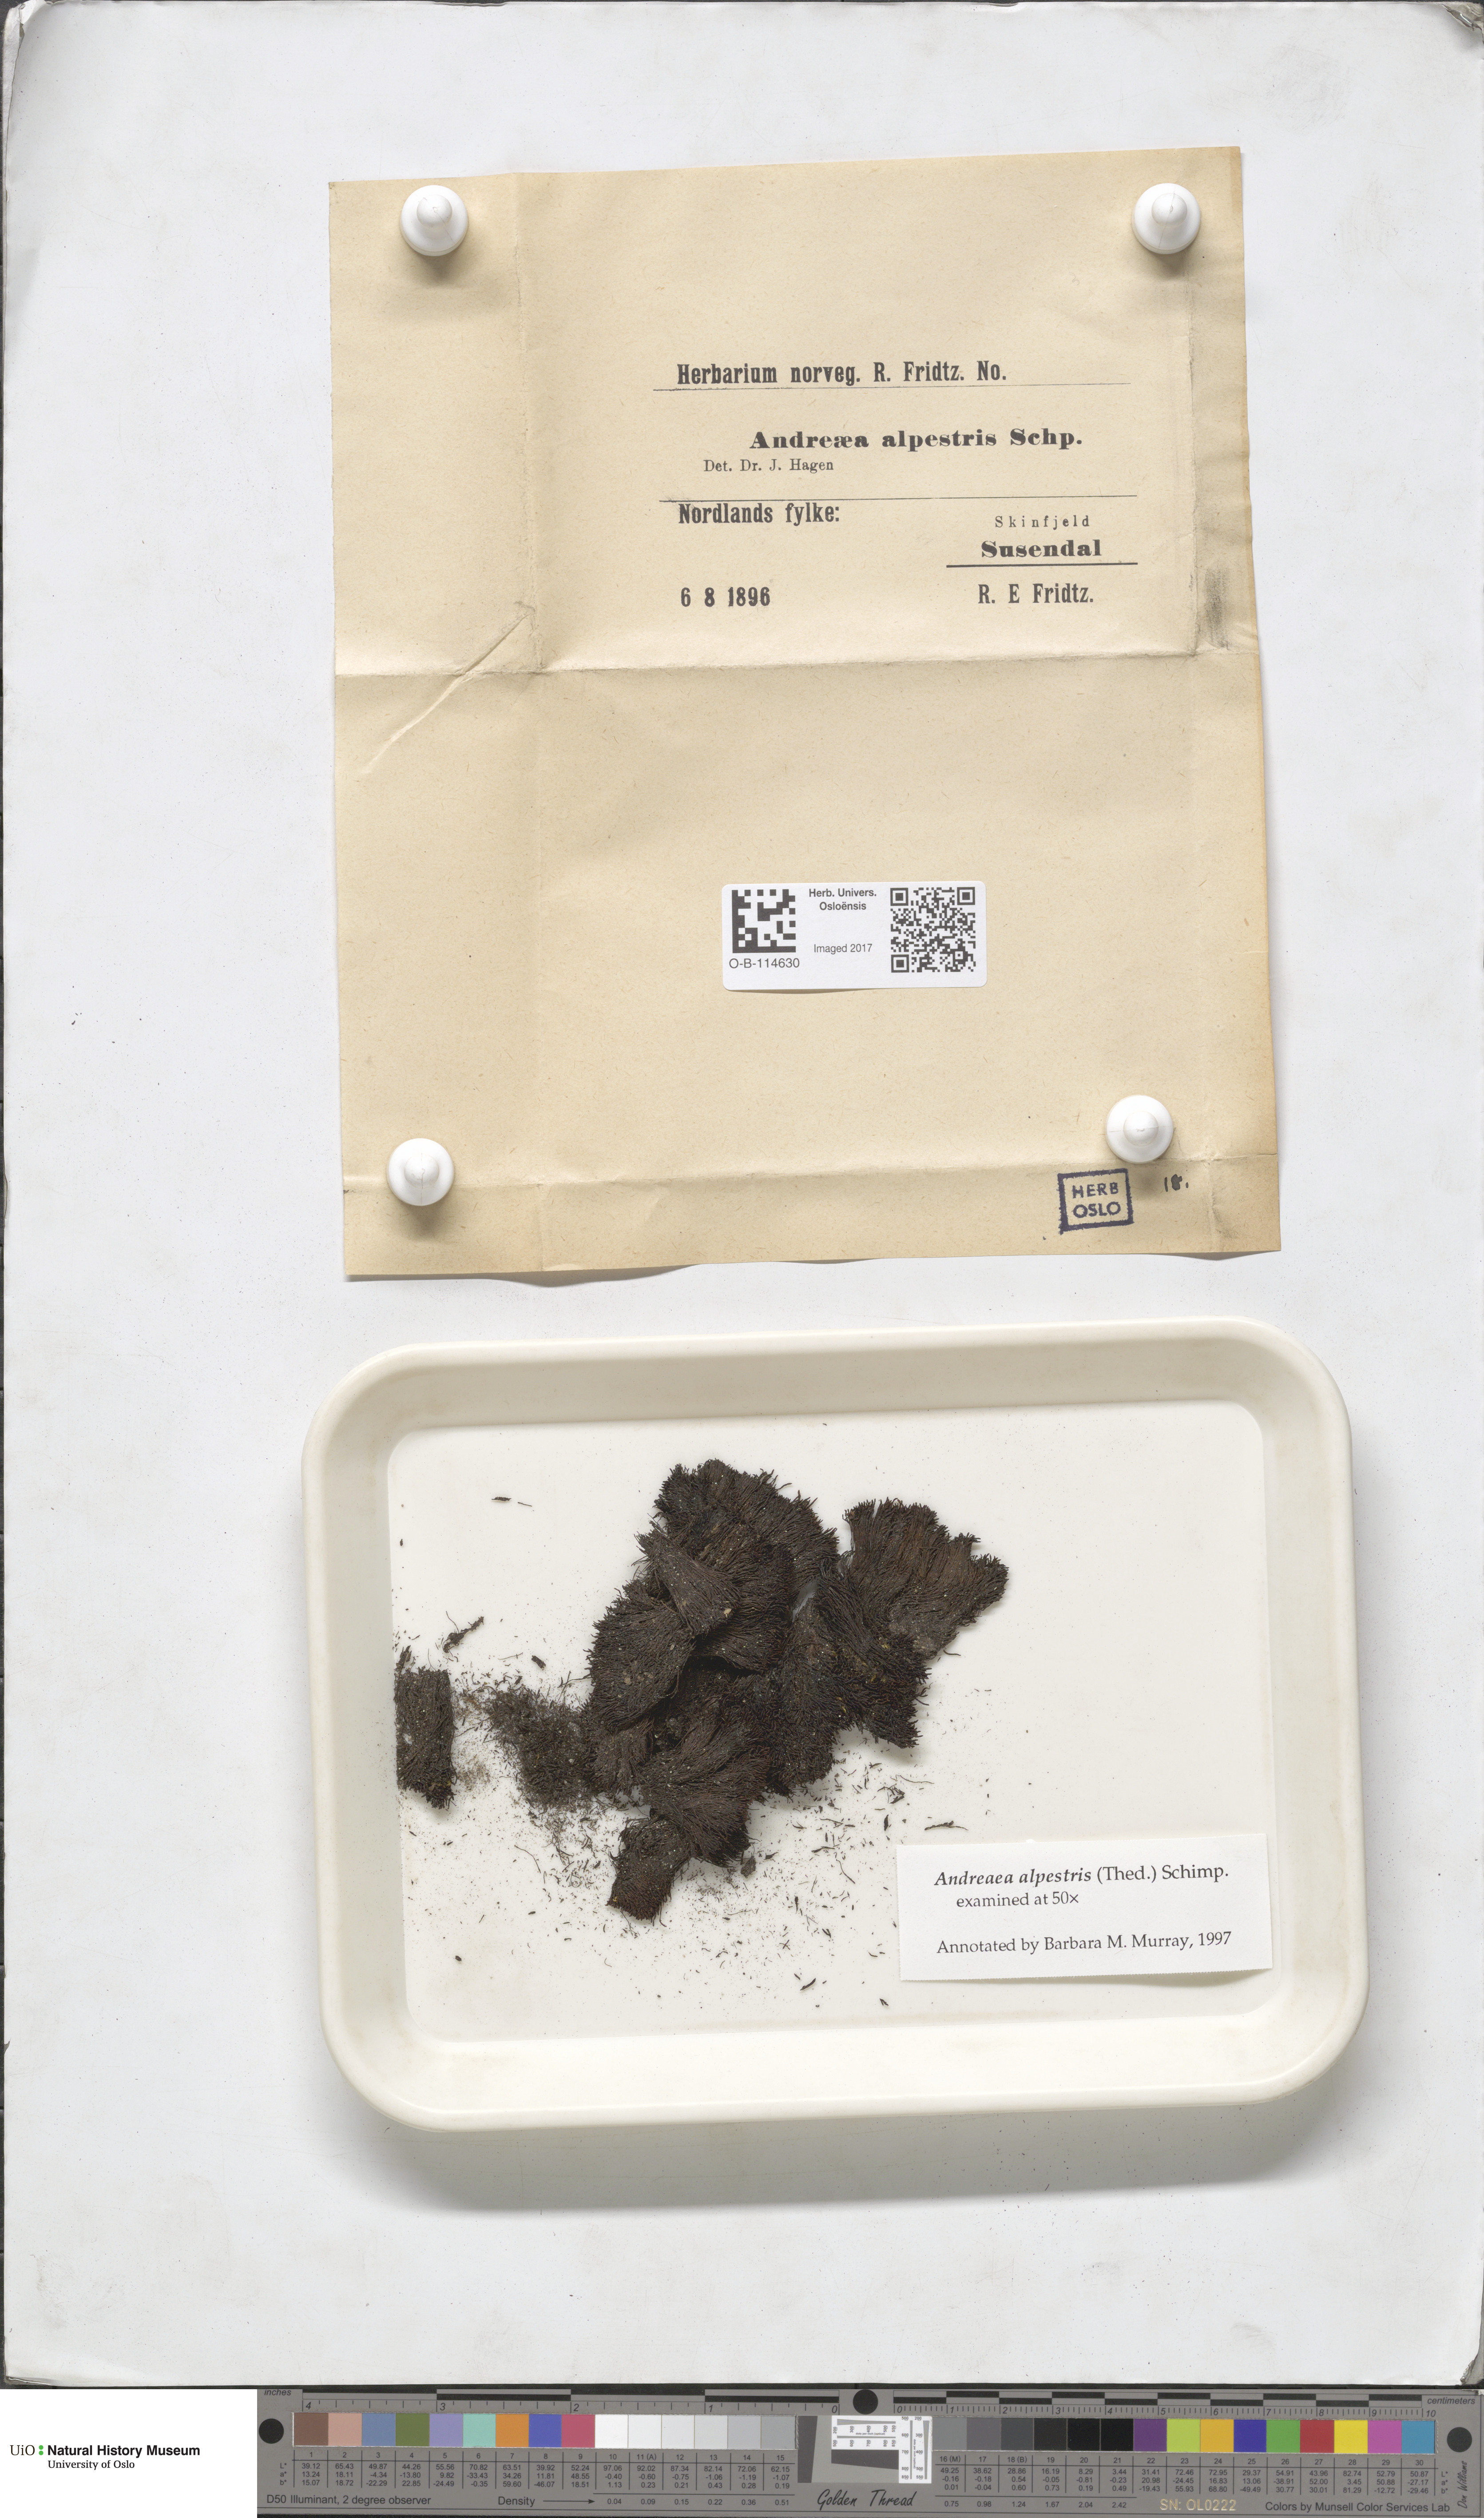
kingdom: Plantae
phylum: Bryophyta
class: Andreaeopsida
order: Andreaeales
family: Andreaeaceae
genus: Andreaea
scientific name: Andreaea alpestris
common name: Slender rock-moss
